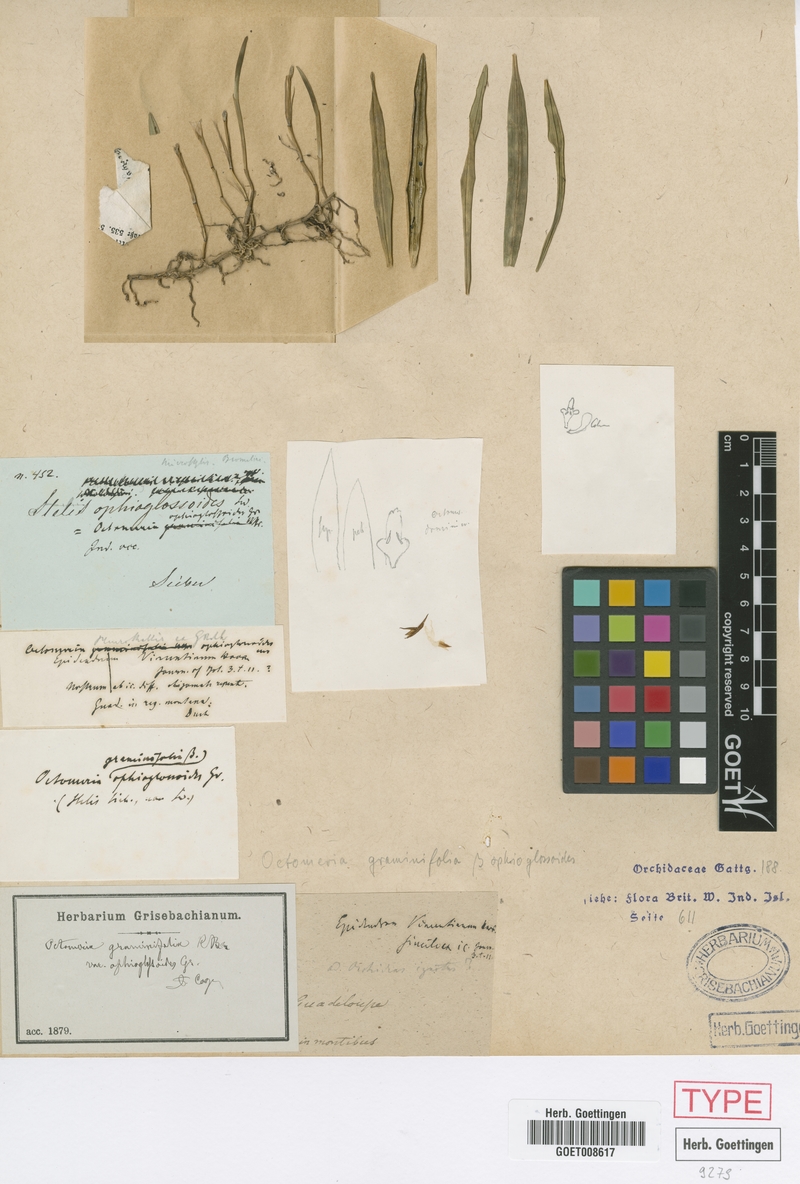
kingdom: Plantae
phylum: Tracheophyta
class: Liliopsida
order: Asparagales
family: Orchidaceae
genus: Octomeria
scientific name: Octomeria graminifolia
